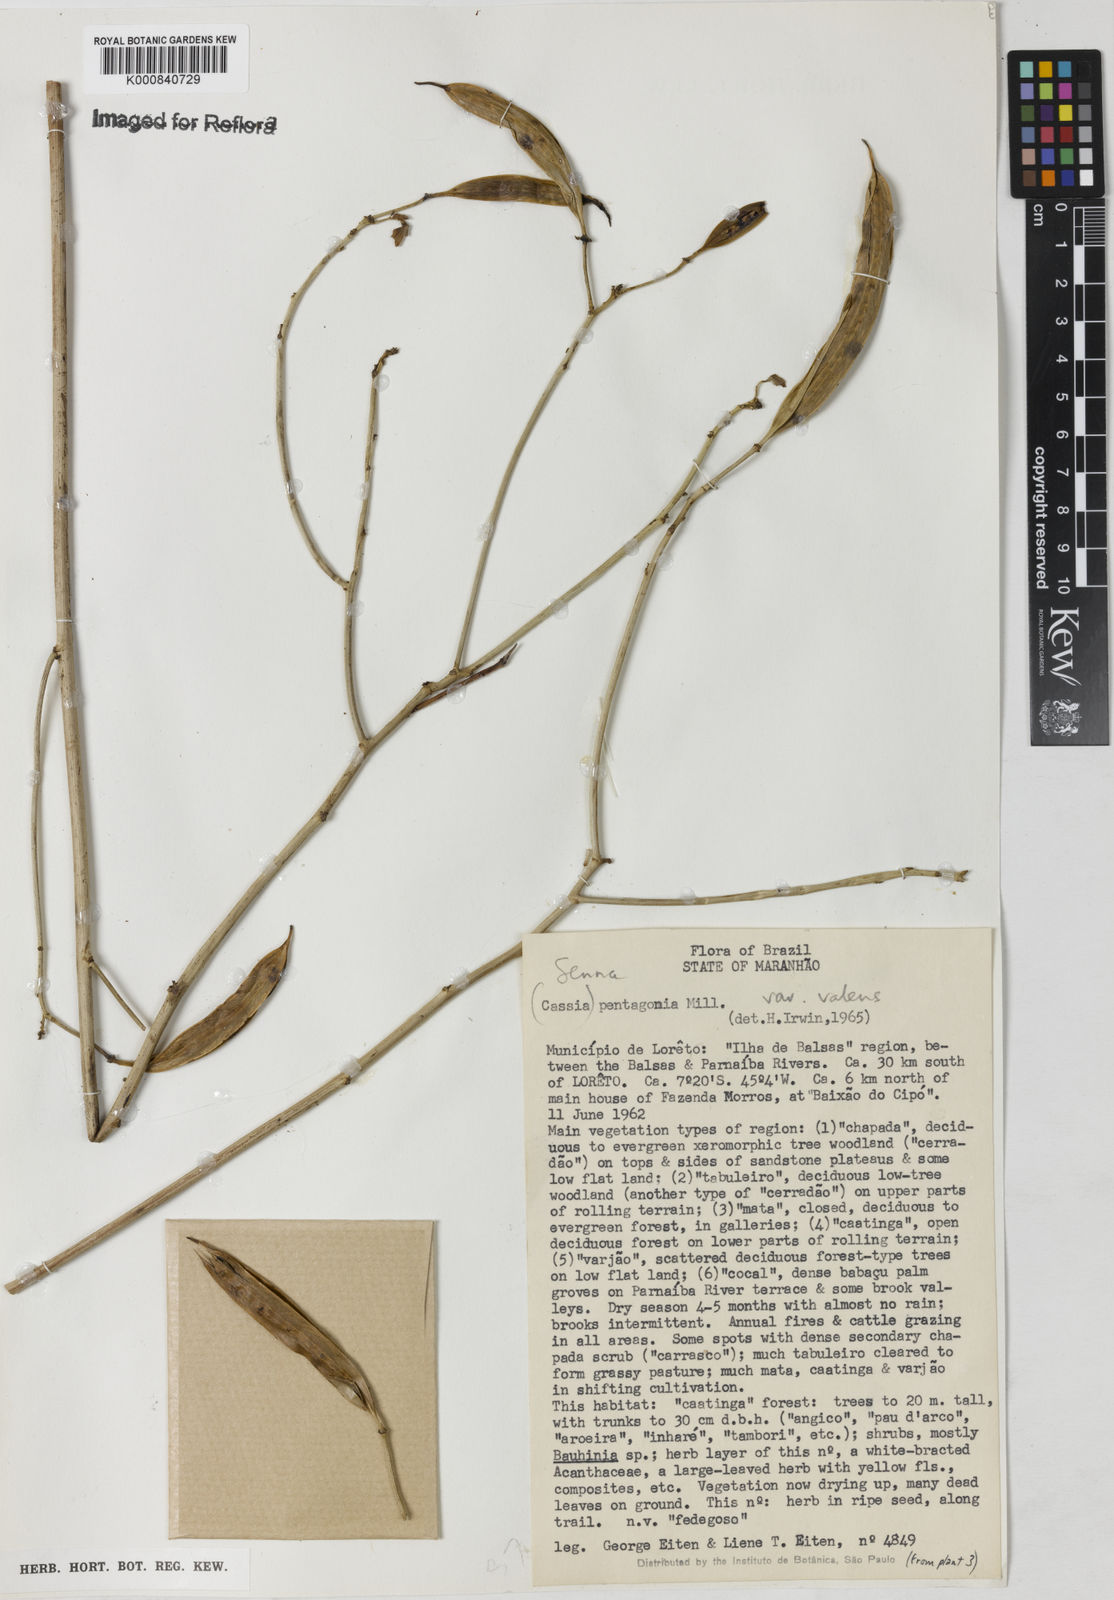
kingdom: Plantae
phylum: Tracheophyta
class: Magnoliopsida
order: Fabales
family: Fabaceae
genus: Senna
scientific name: Senna pentagonia
